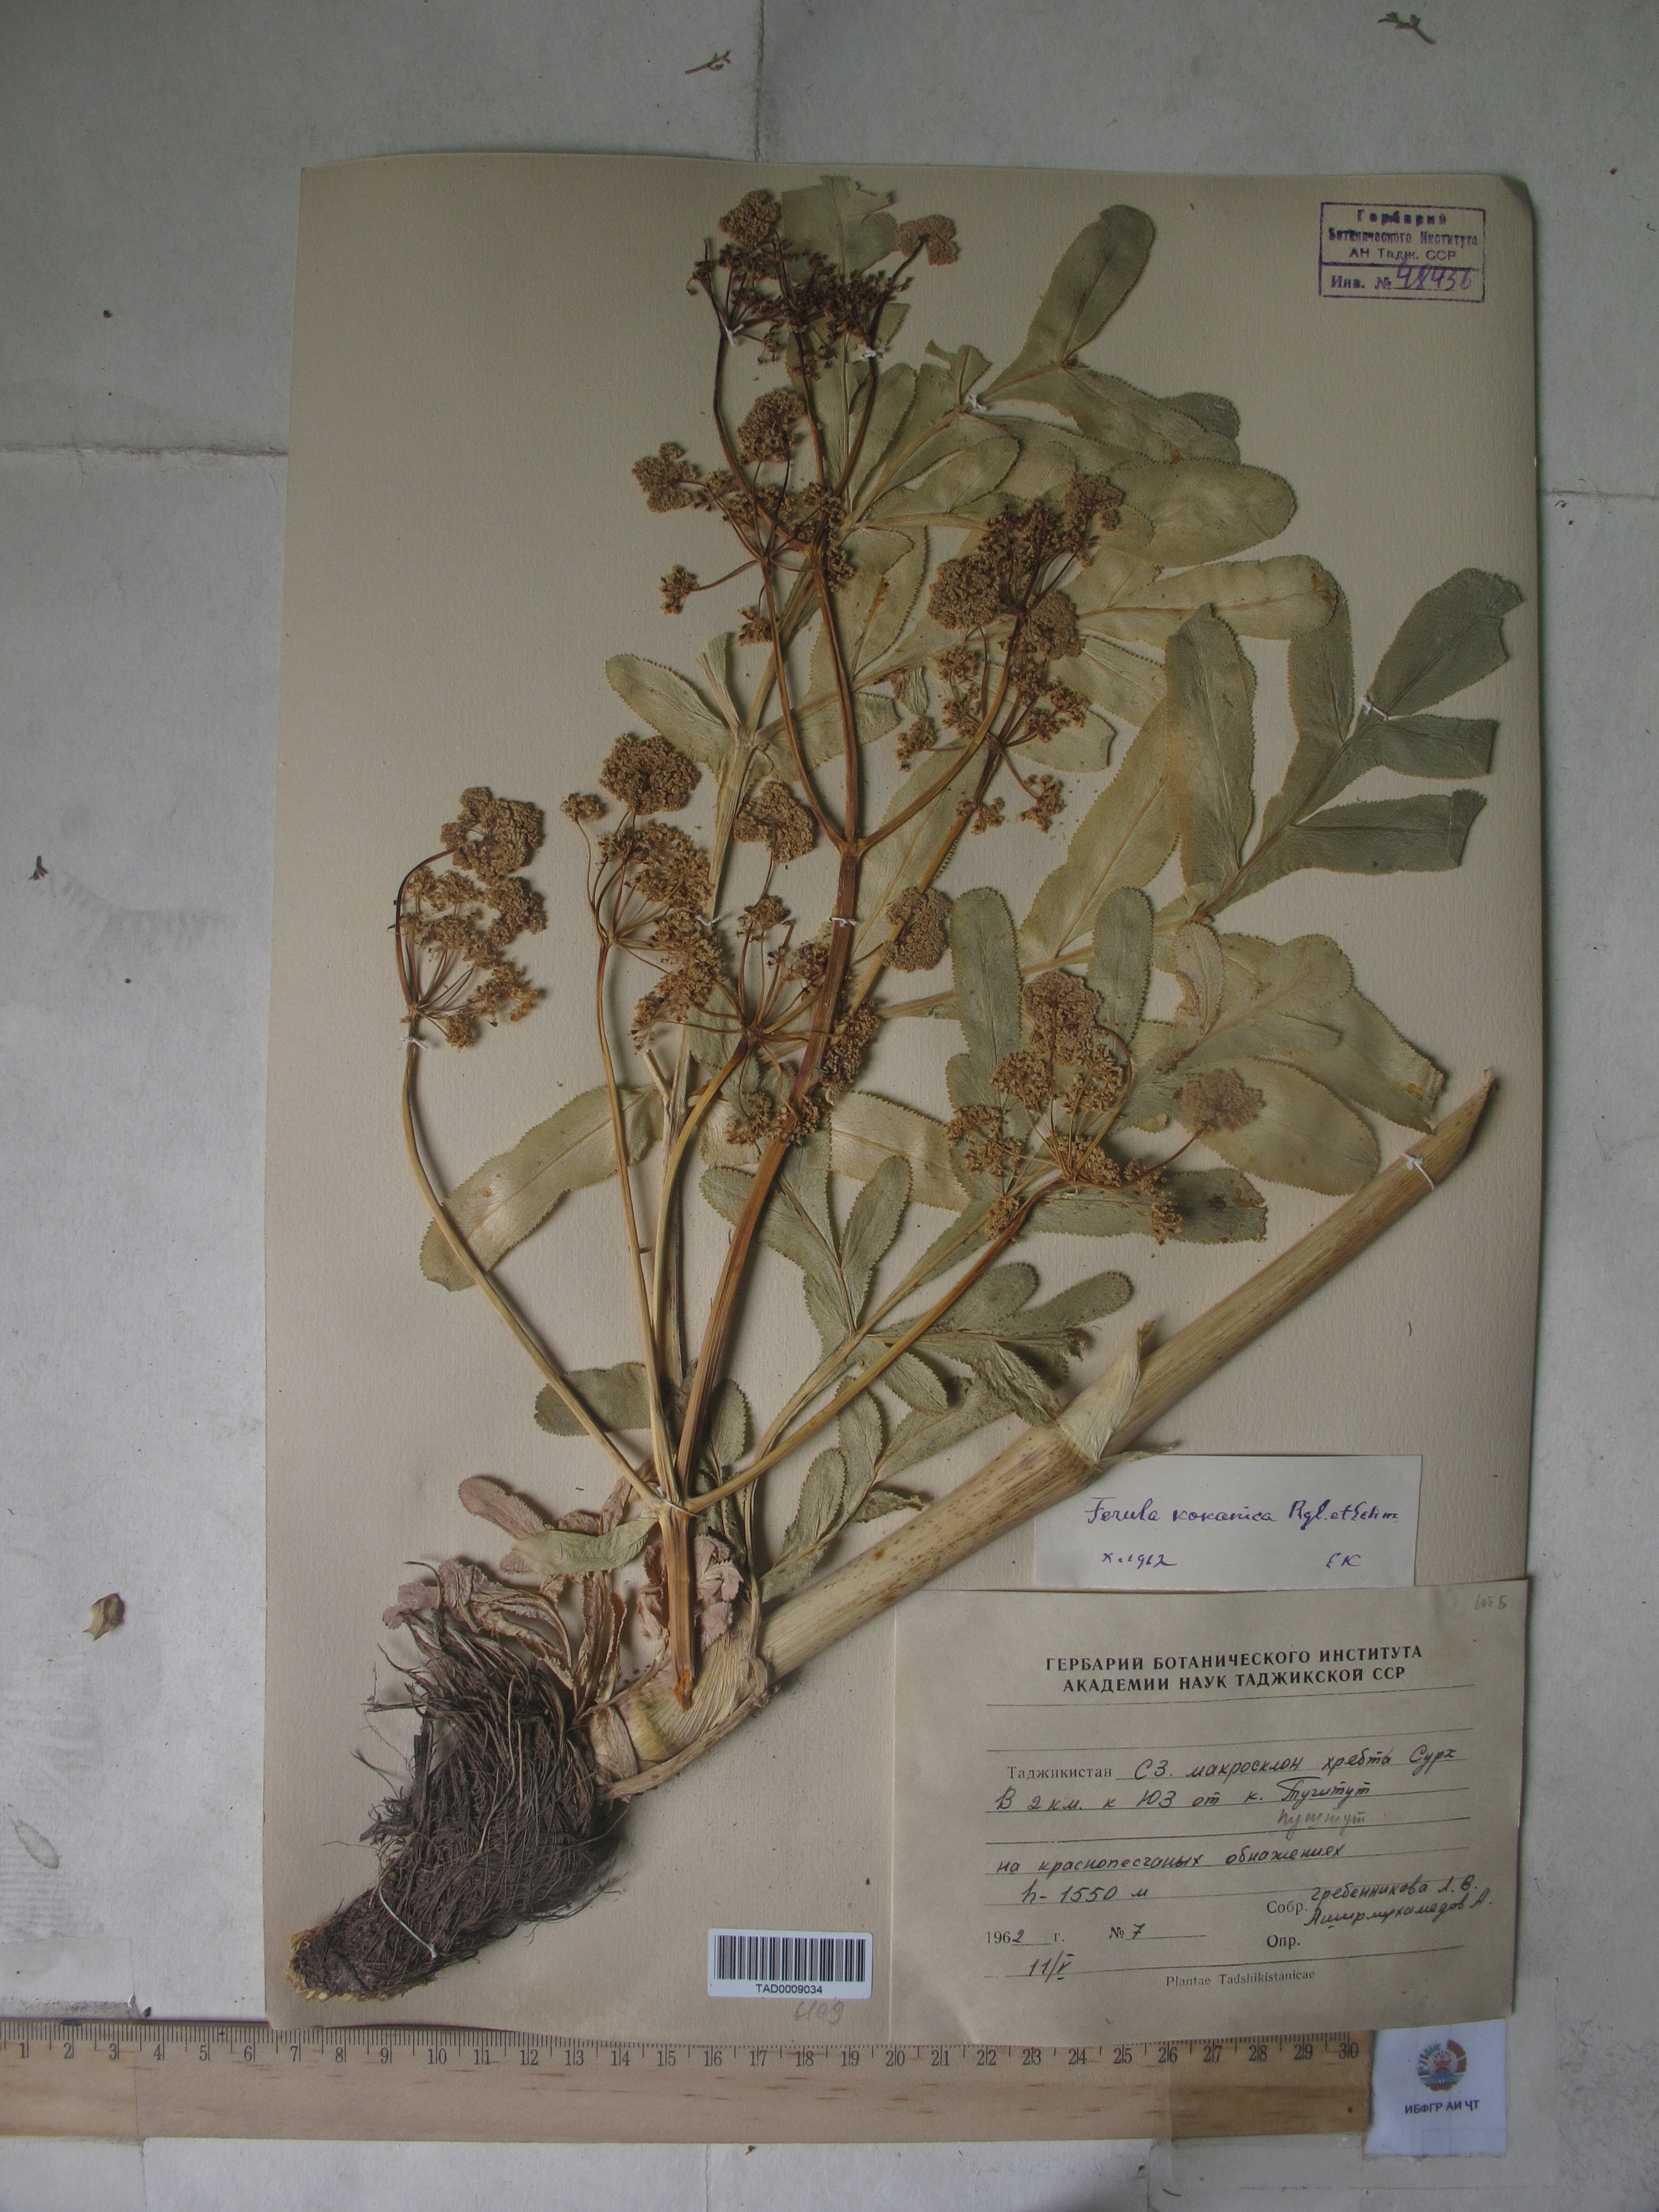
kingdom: Plantae
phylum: Tracheophyta
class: Magnoliopsida
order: Apiales
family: Apiaceae
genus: Ferula
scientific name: Ferula kokanica
